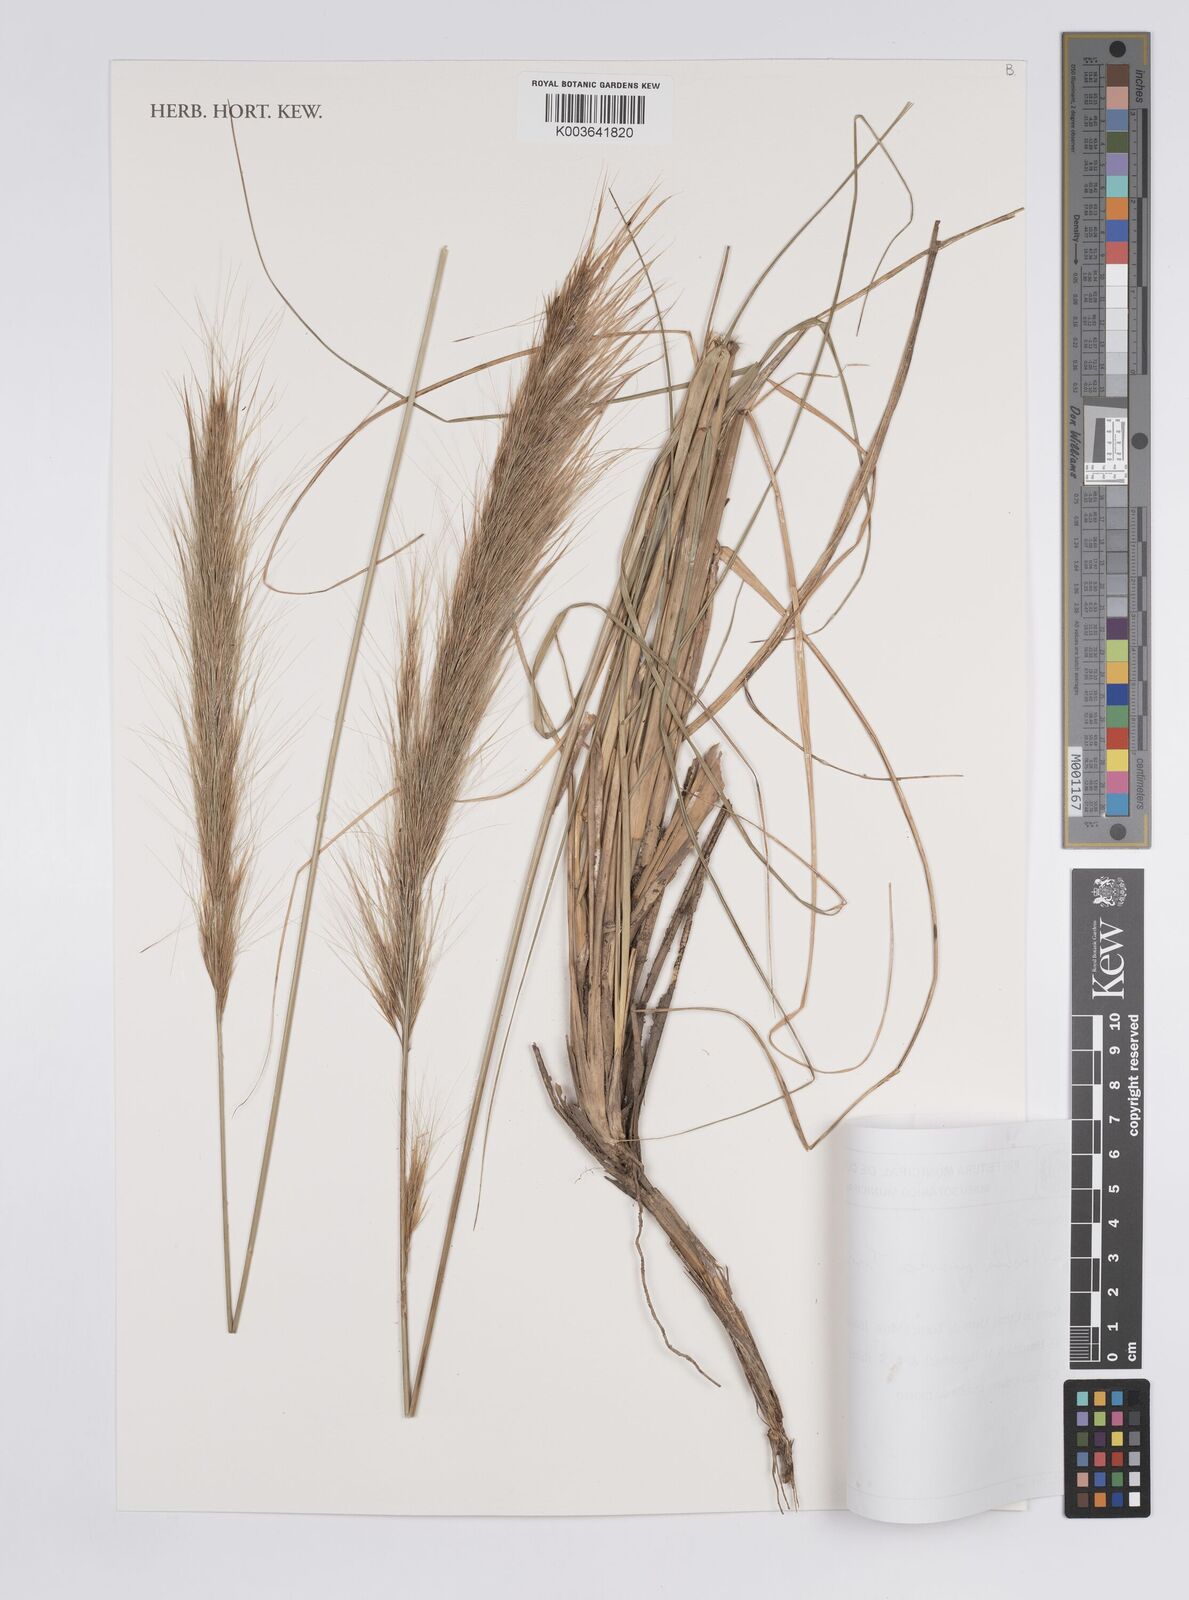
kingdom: Plantae
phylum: Tracheophyta
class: Liliopsida
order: Poales
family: Poaceae
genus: Aristida
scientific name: Aristida riparia
